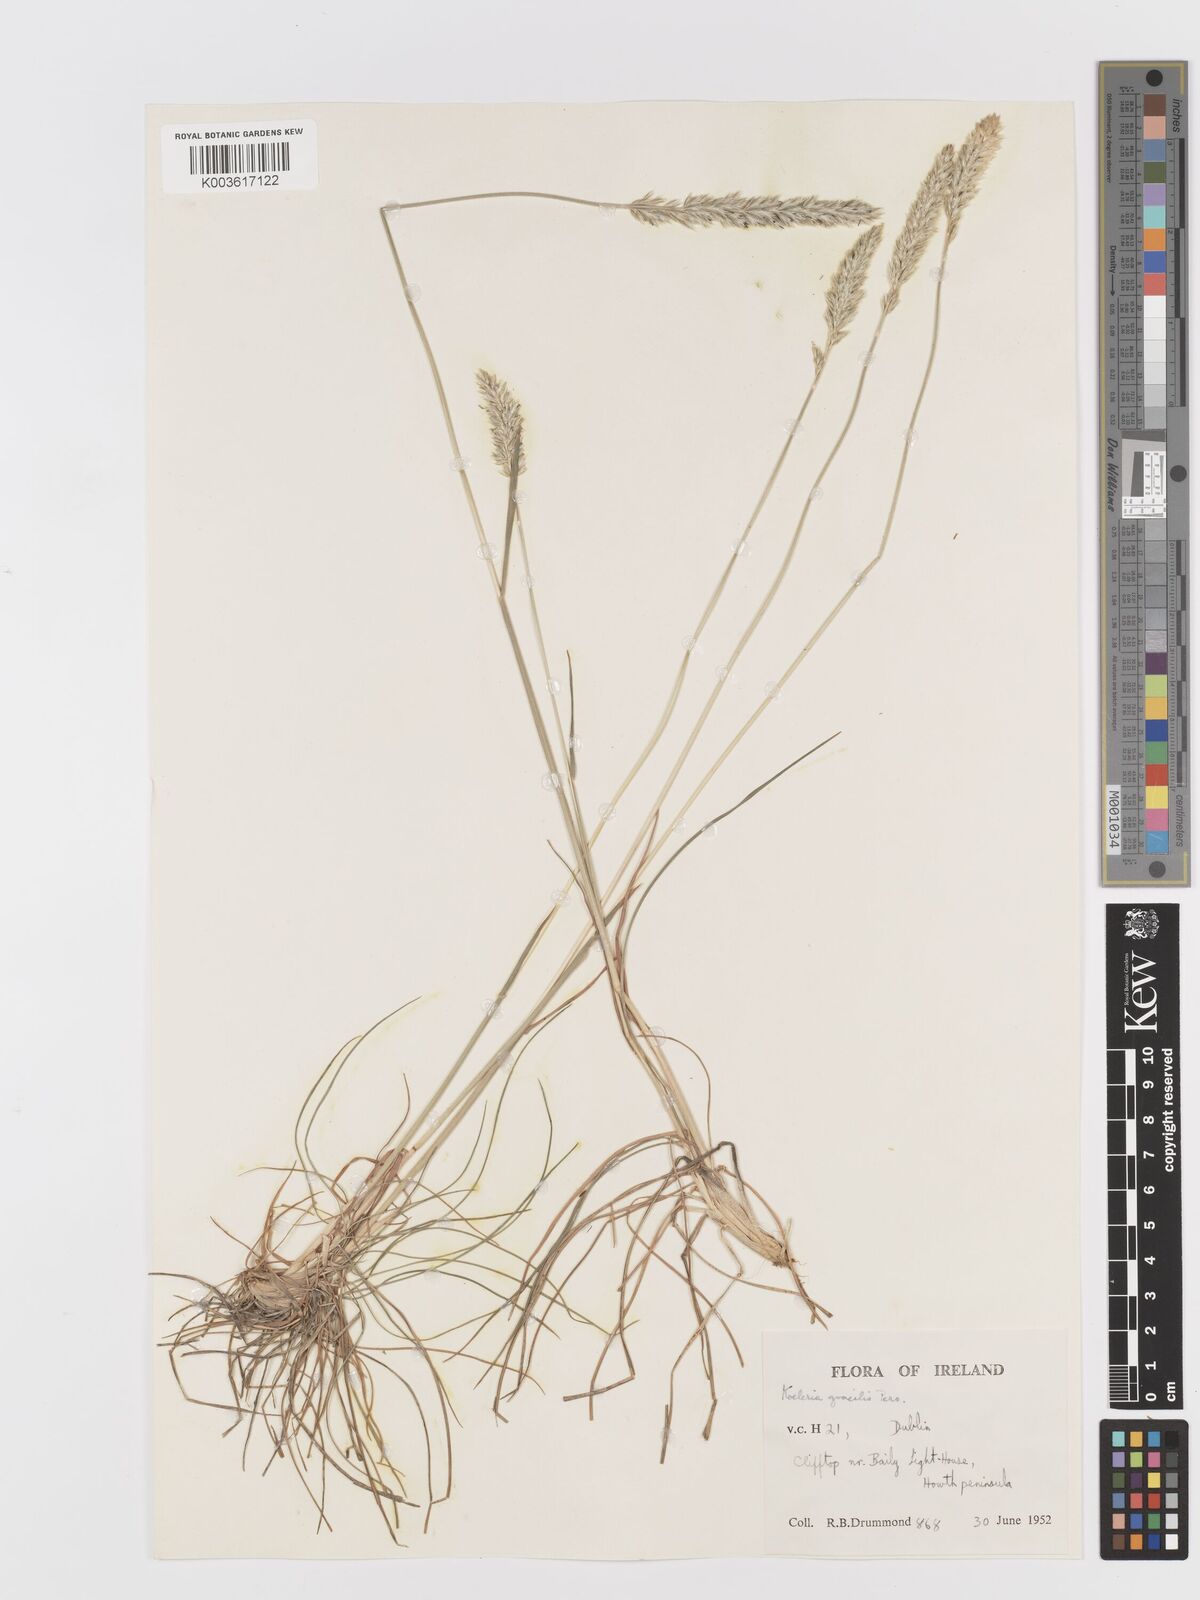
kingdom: Plantae
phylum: Tracheophyta
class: Liliopsida
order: Poales
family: Poaceae
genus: Koeleria
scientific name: Koeleria macrantha
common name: Crested hair-grass
